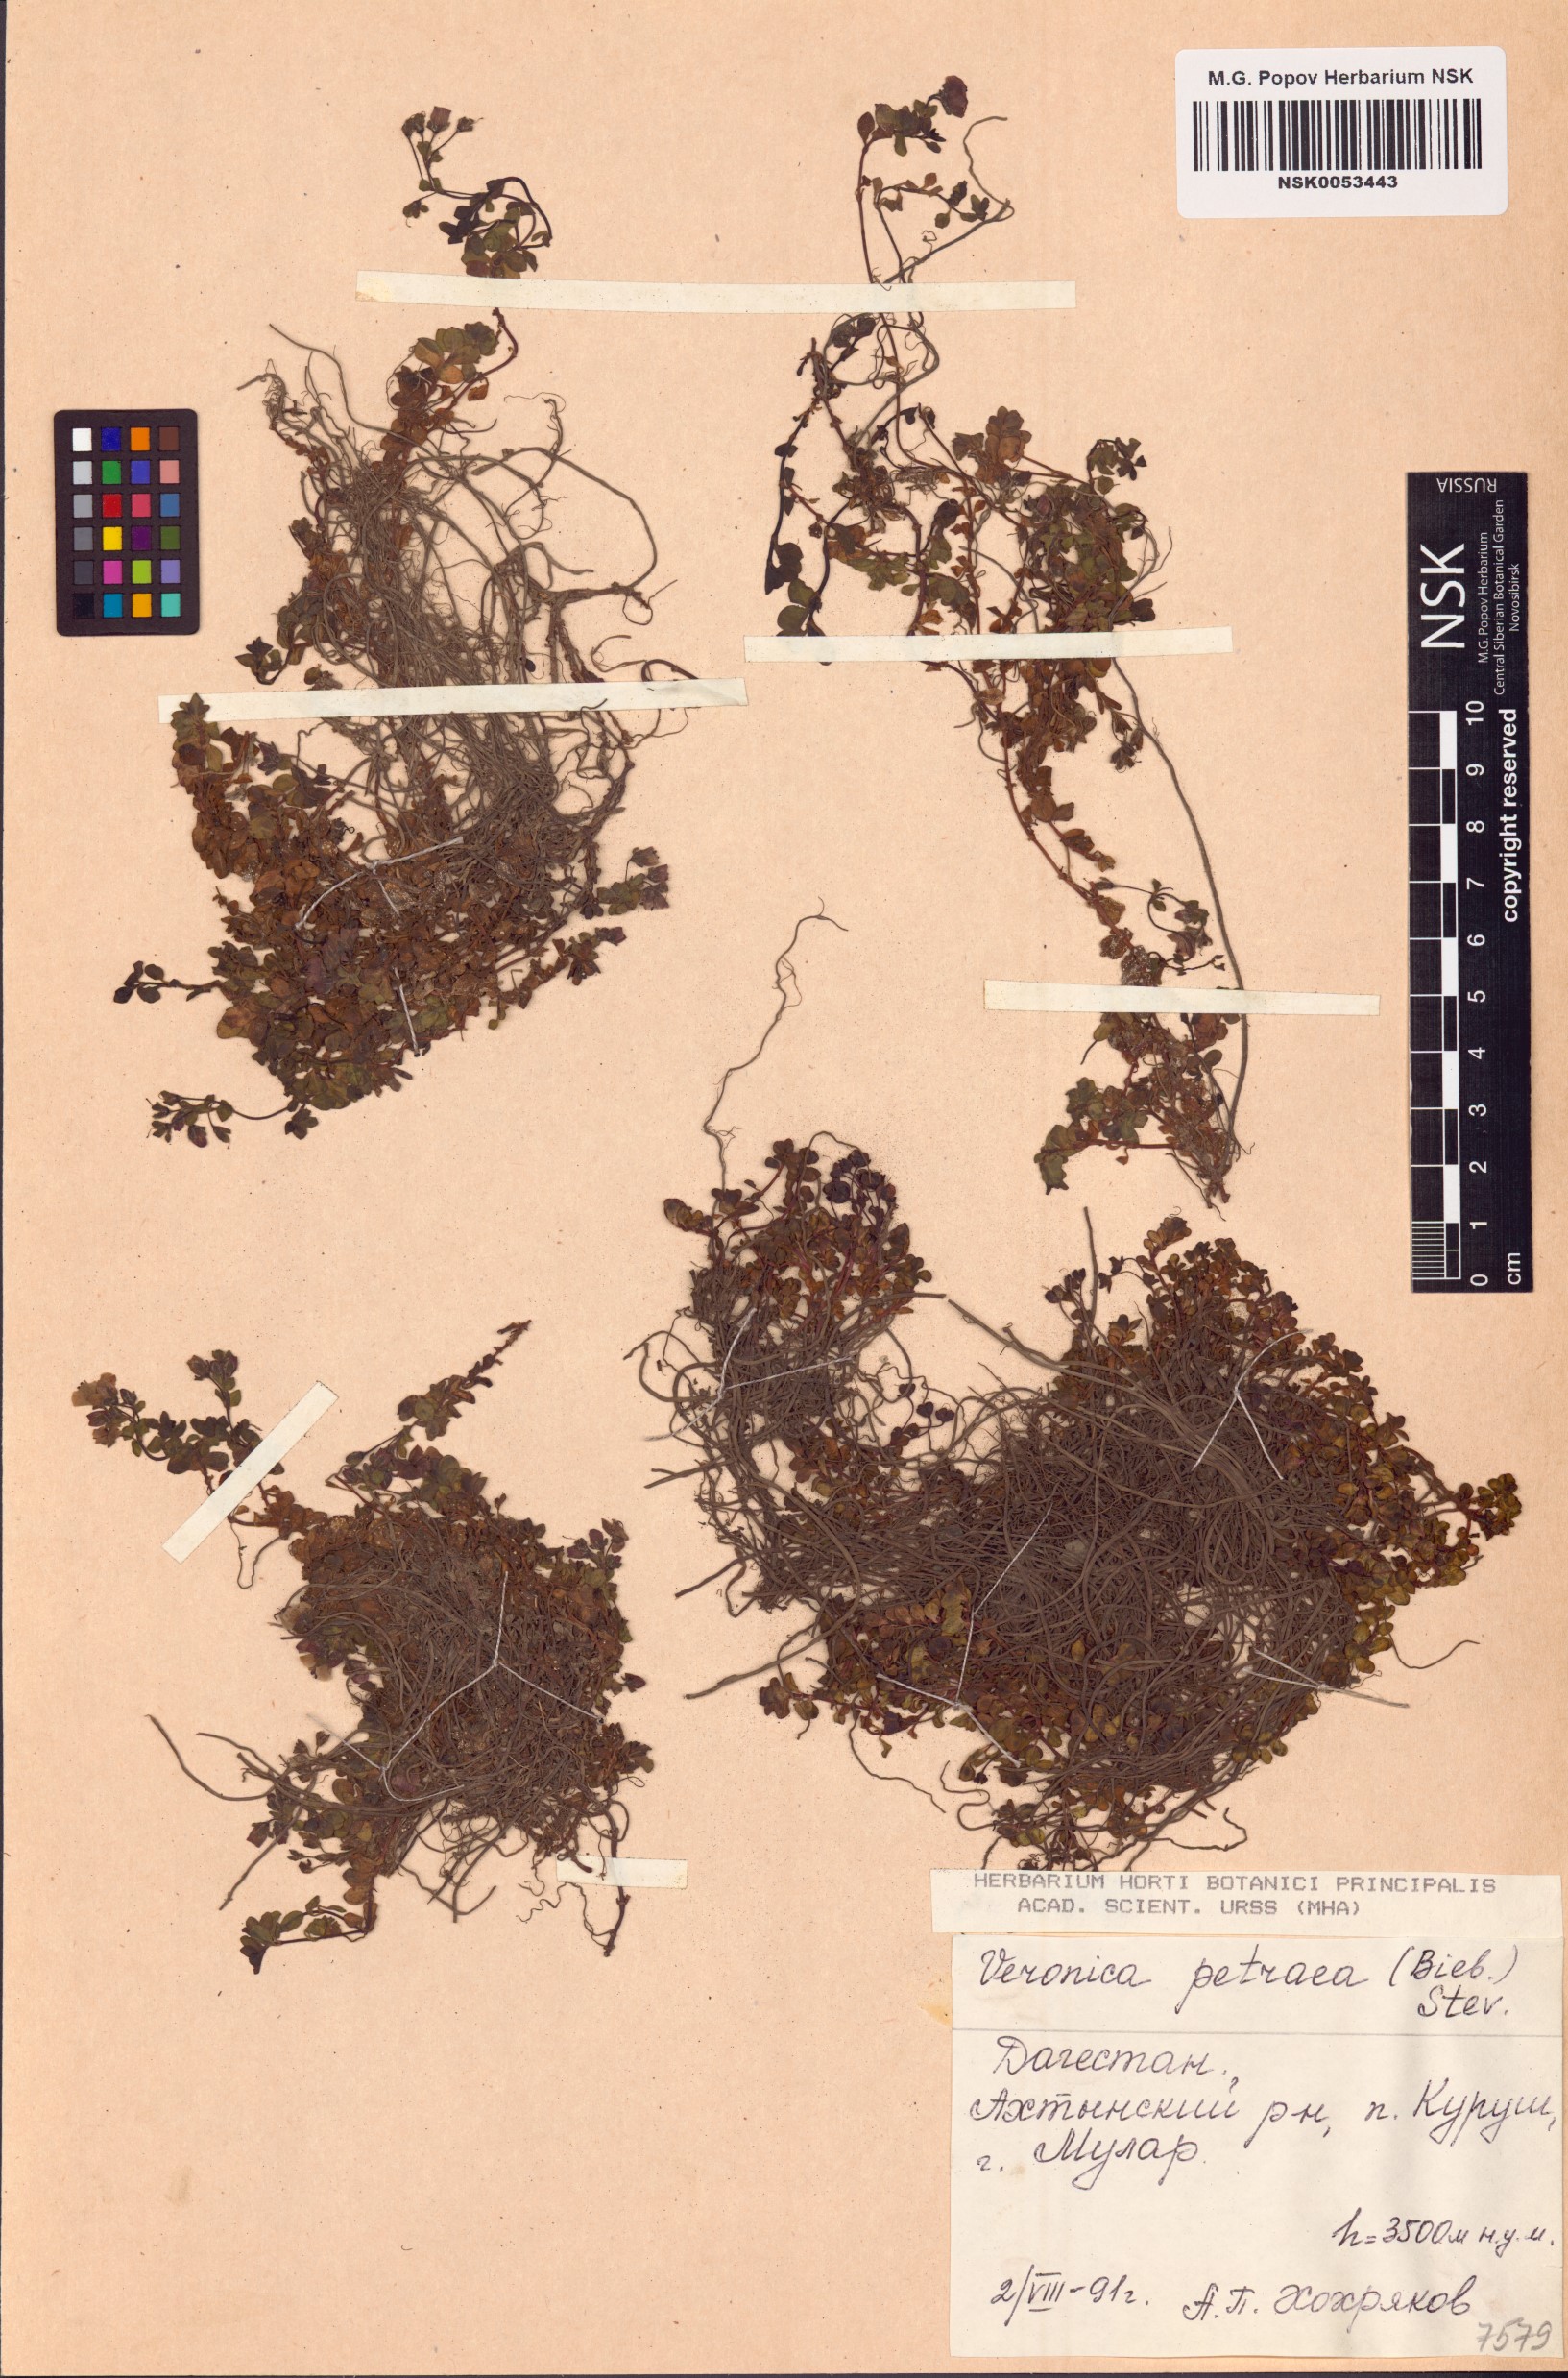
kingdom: Plantae
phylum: Tracheophyta
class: Magnoliopsida
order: Lamiales
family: Plantaginaceae
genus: Veronica
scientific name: Veronica petraea
